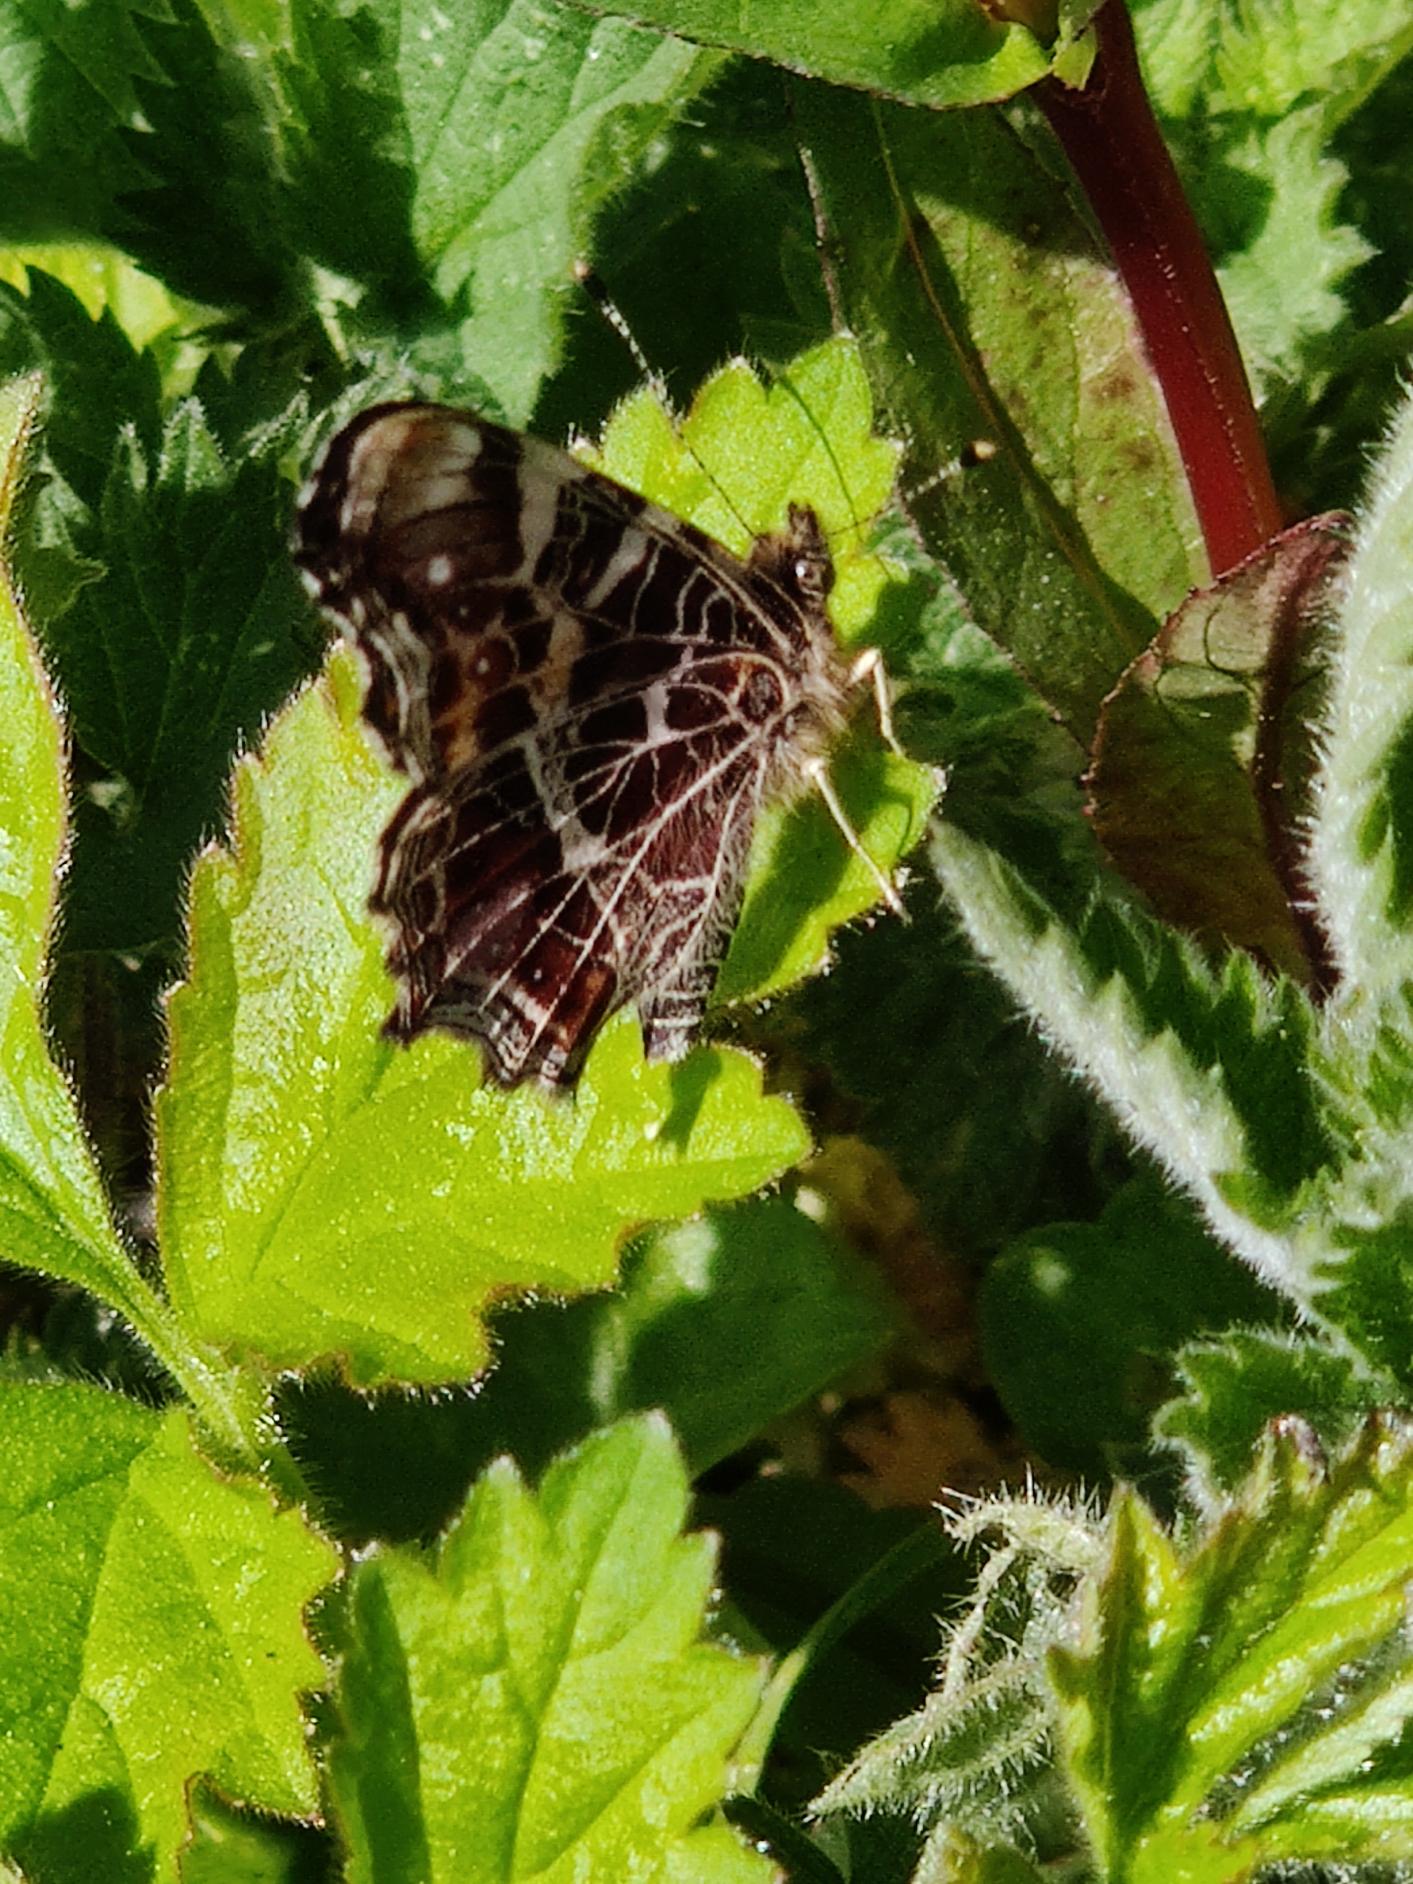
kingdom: Animalia
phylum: Arthropoda
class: Insecta
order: Lepidoptera
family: Nymphalidae
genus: Araschnia
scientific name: Araschnia levana
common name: Nældesommerfugl
